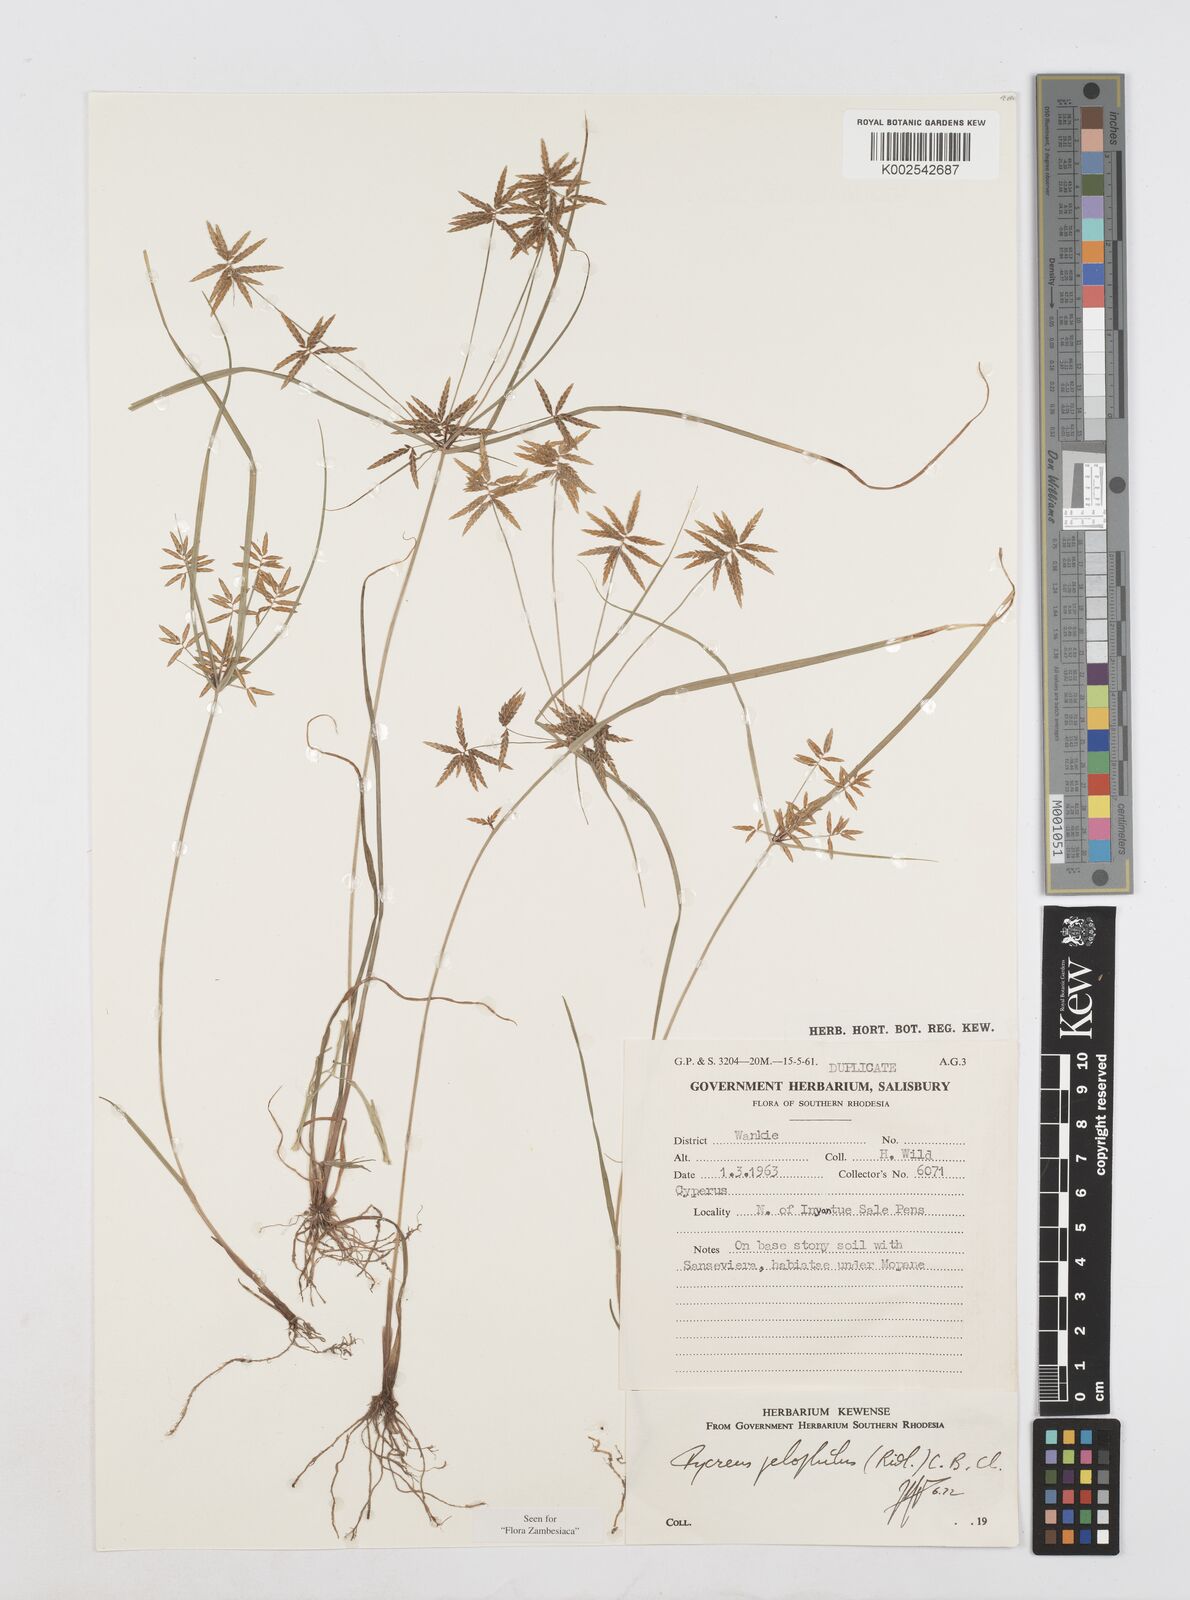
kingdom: Plantae
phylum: Tracheophyta
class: Liliopsida
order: Poales
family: Cyperaceae
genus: Cyperus
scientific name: Cyperus pelophilus
